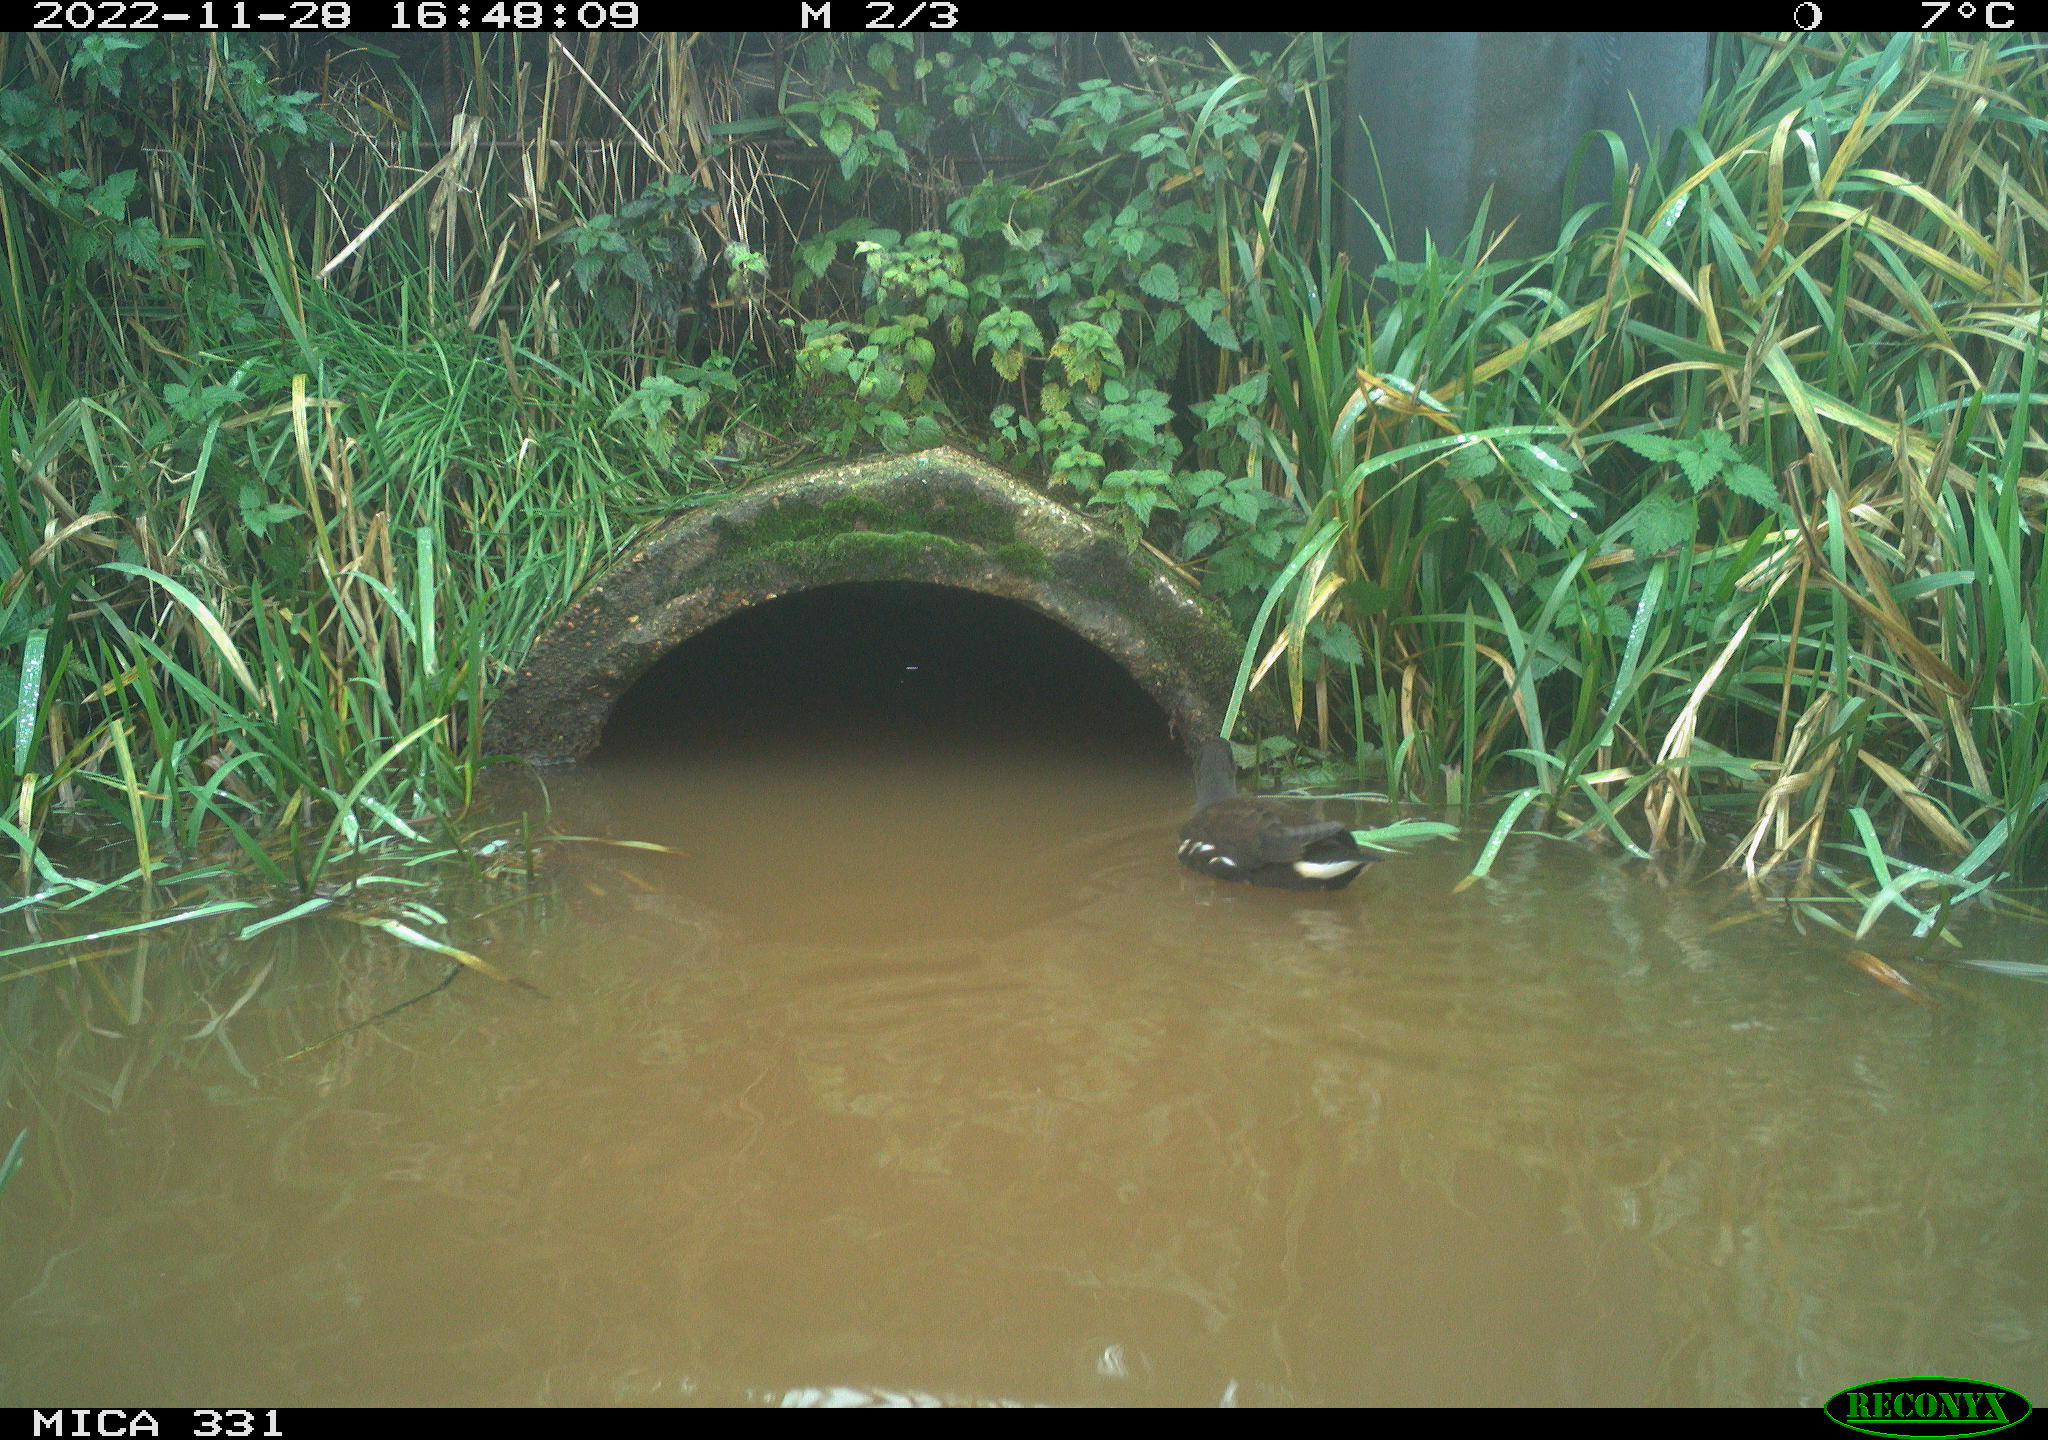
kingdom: Animalia
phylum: Chordata
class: Aves
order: Gruiformes
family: Rallidae
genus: Gallinula
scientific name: Gallinula chloropus
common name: Common moorhen
